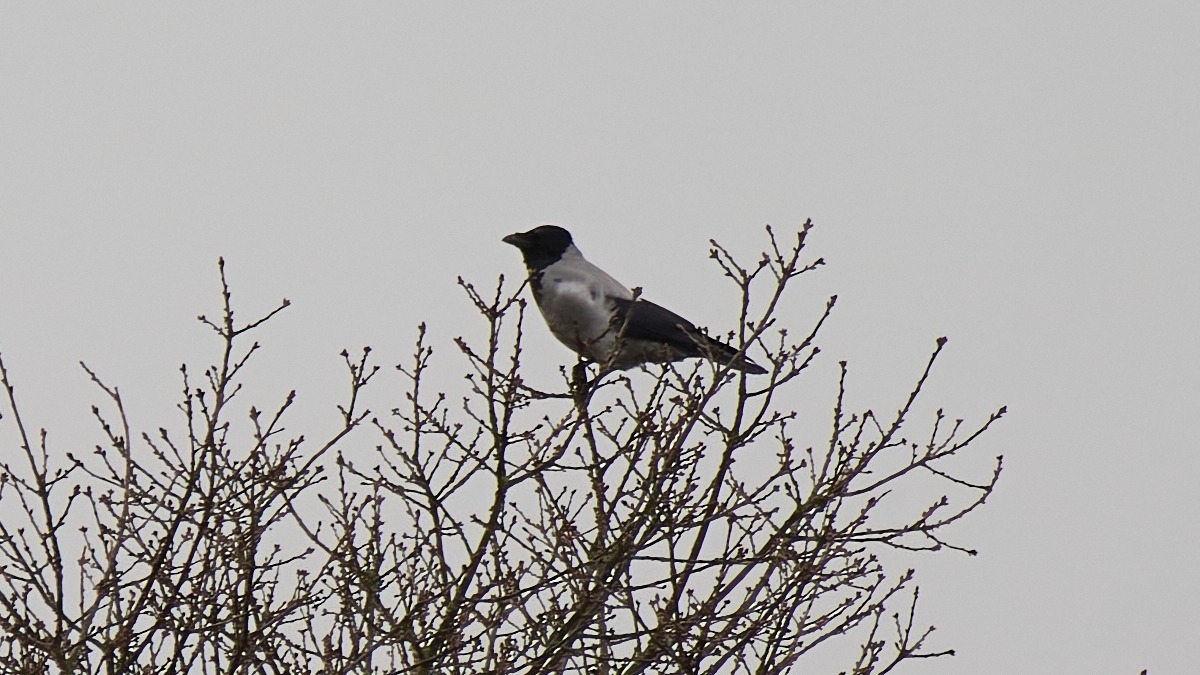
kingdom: Animalia
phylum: Chordata
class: Aves
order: Passeriformes
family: Corvidae
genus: Corvus
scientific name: Corvus cornix
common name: Gråkrage
